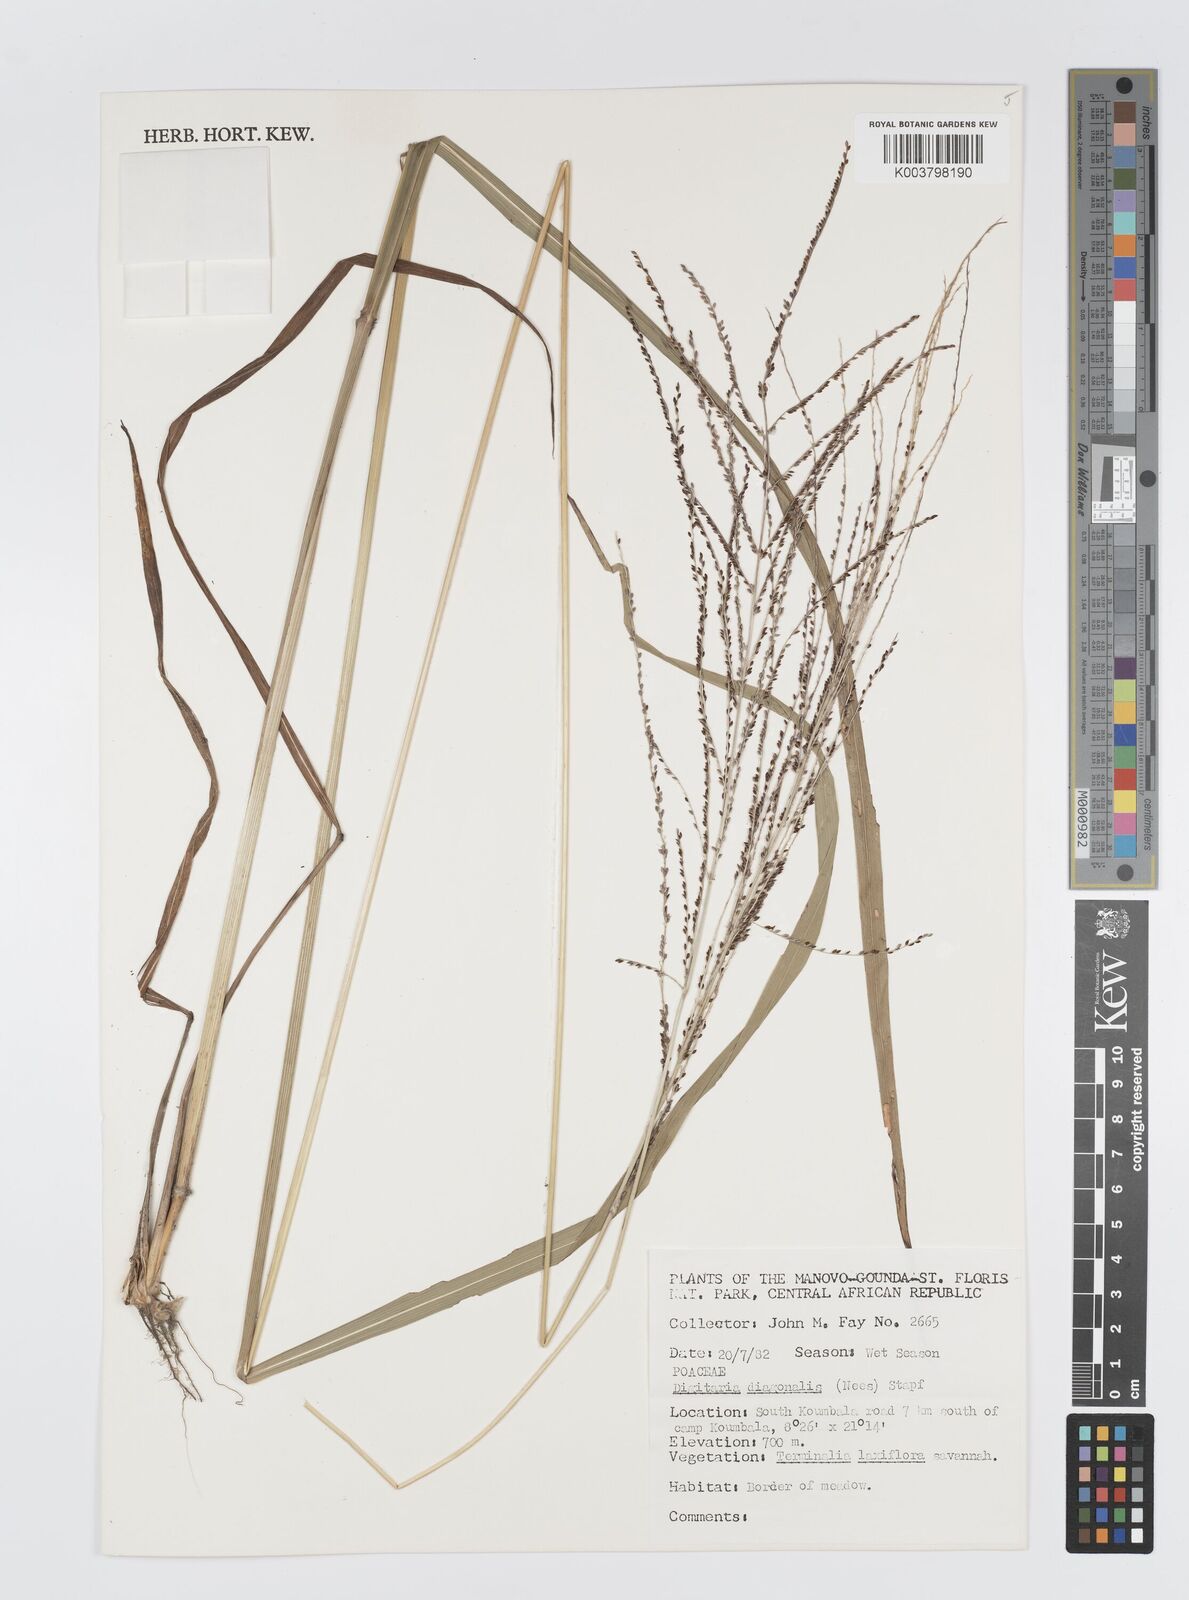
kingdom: Plantae
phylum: Tracheophyta
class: Liliopsida
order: Poales
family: Poaceae
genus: Digitaria
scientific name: Digitaria diagonalis
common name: Brown-seed finger grass
